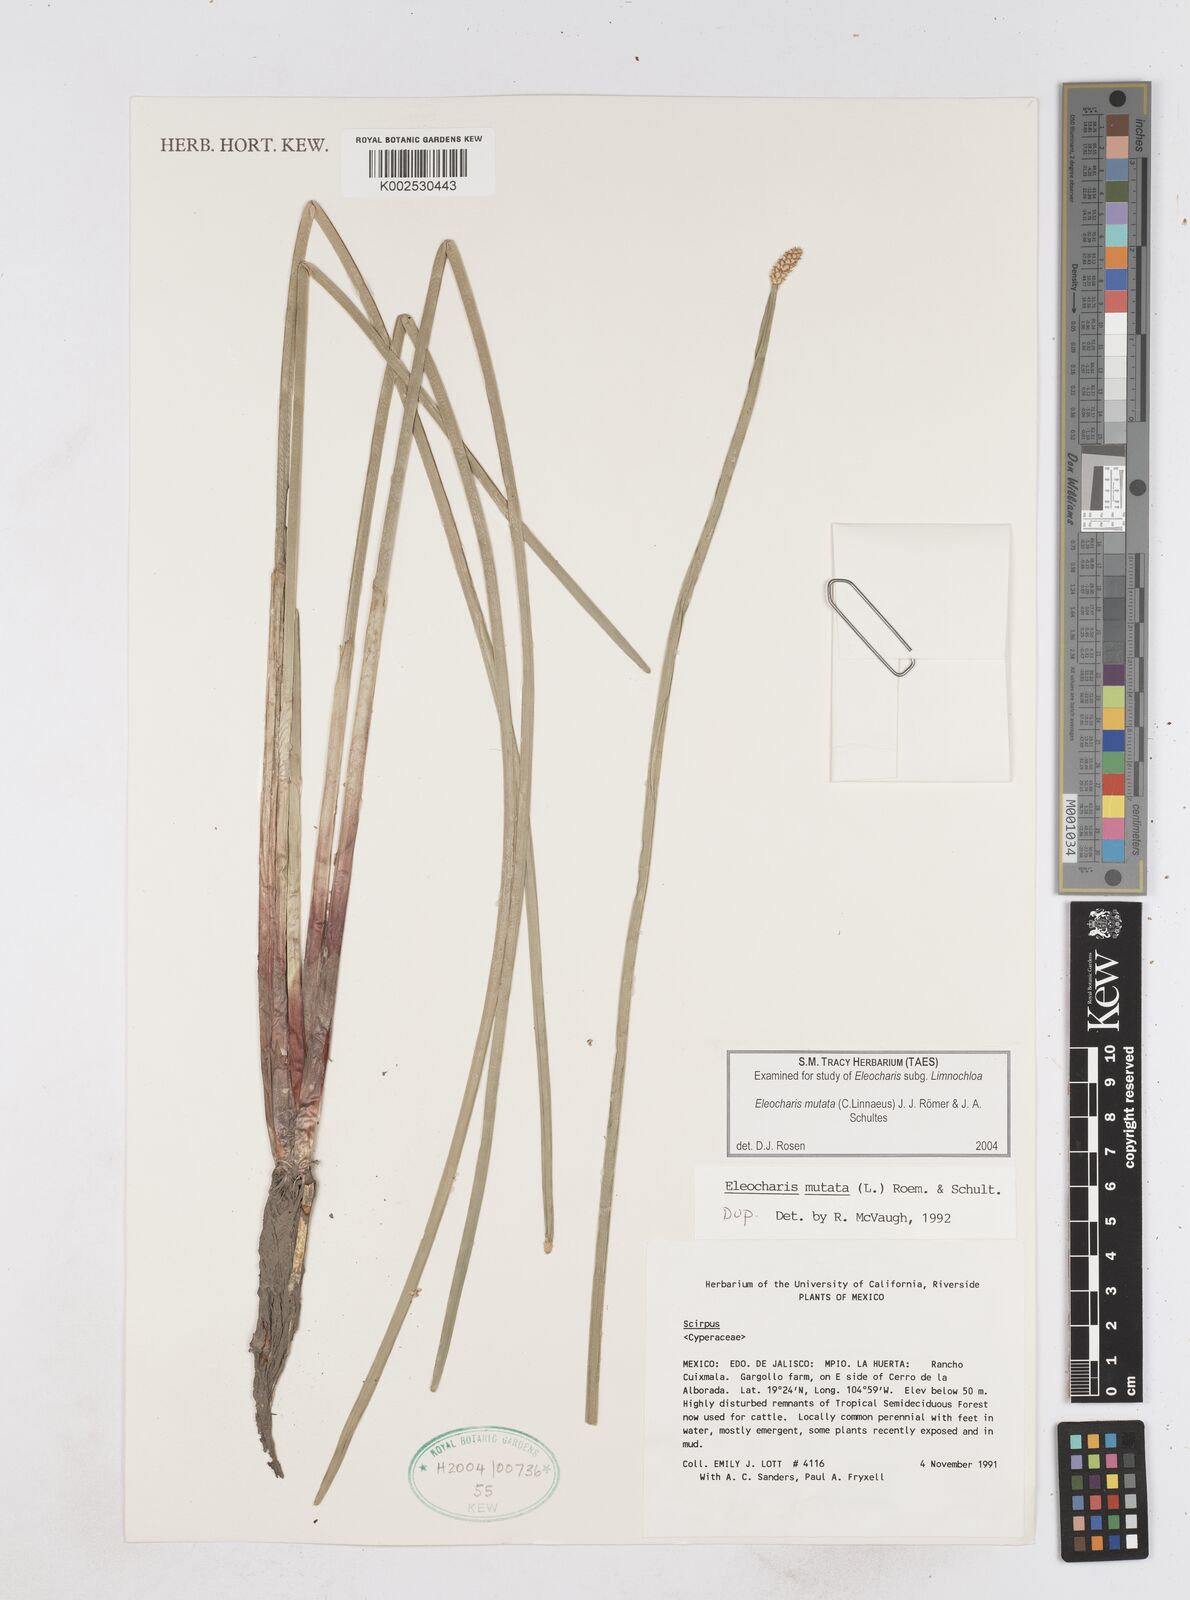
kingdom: Plantae
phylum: Tracheophyta
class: Liliopsida
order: Poales
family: Cyperaceae
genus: Eleocharis
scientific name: Eleocharis mutata
